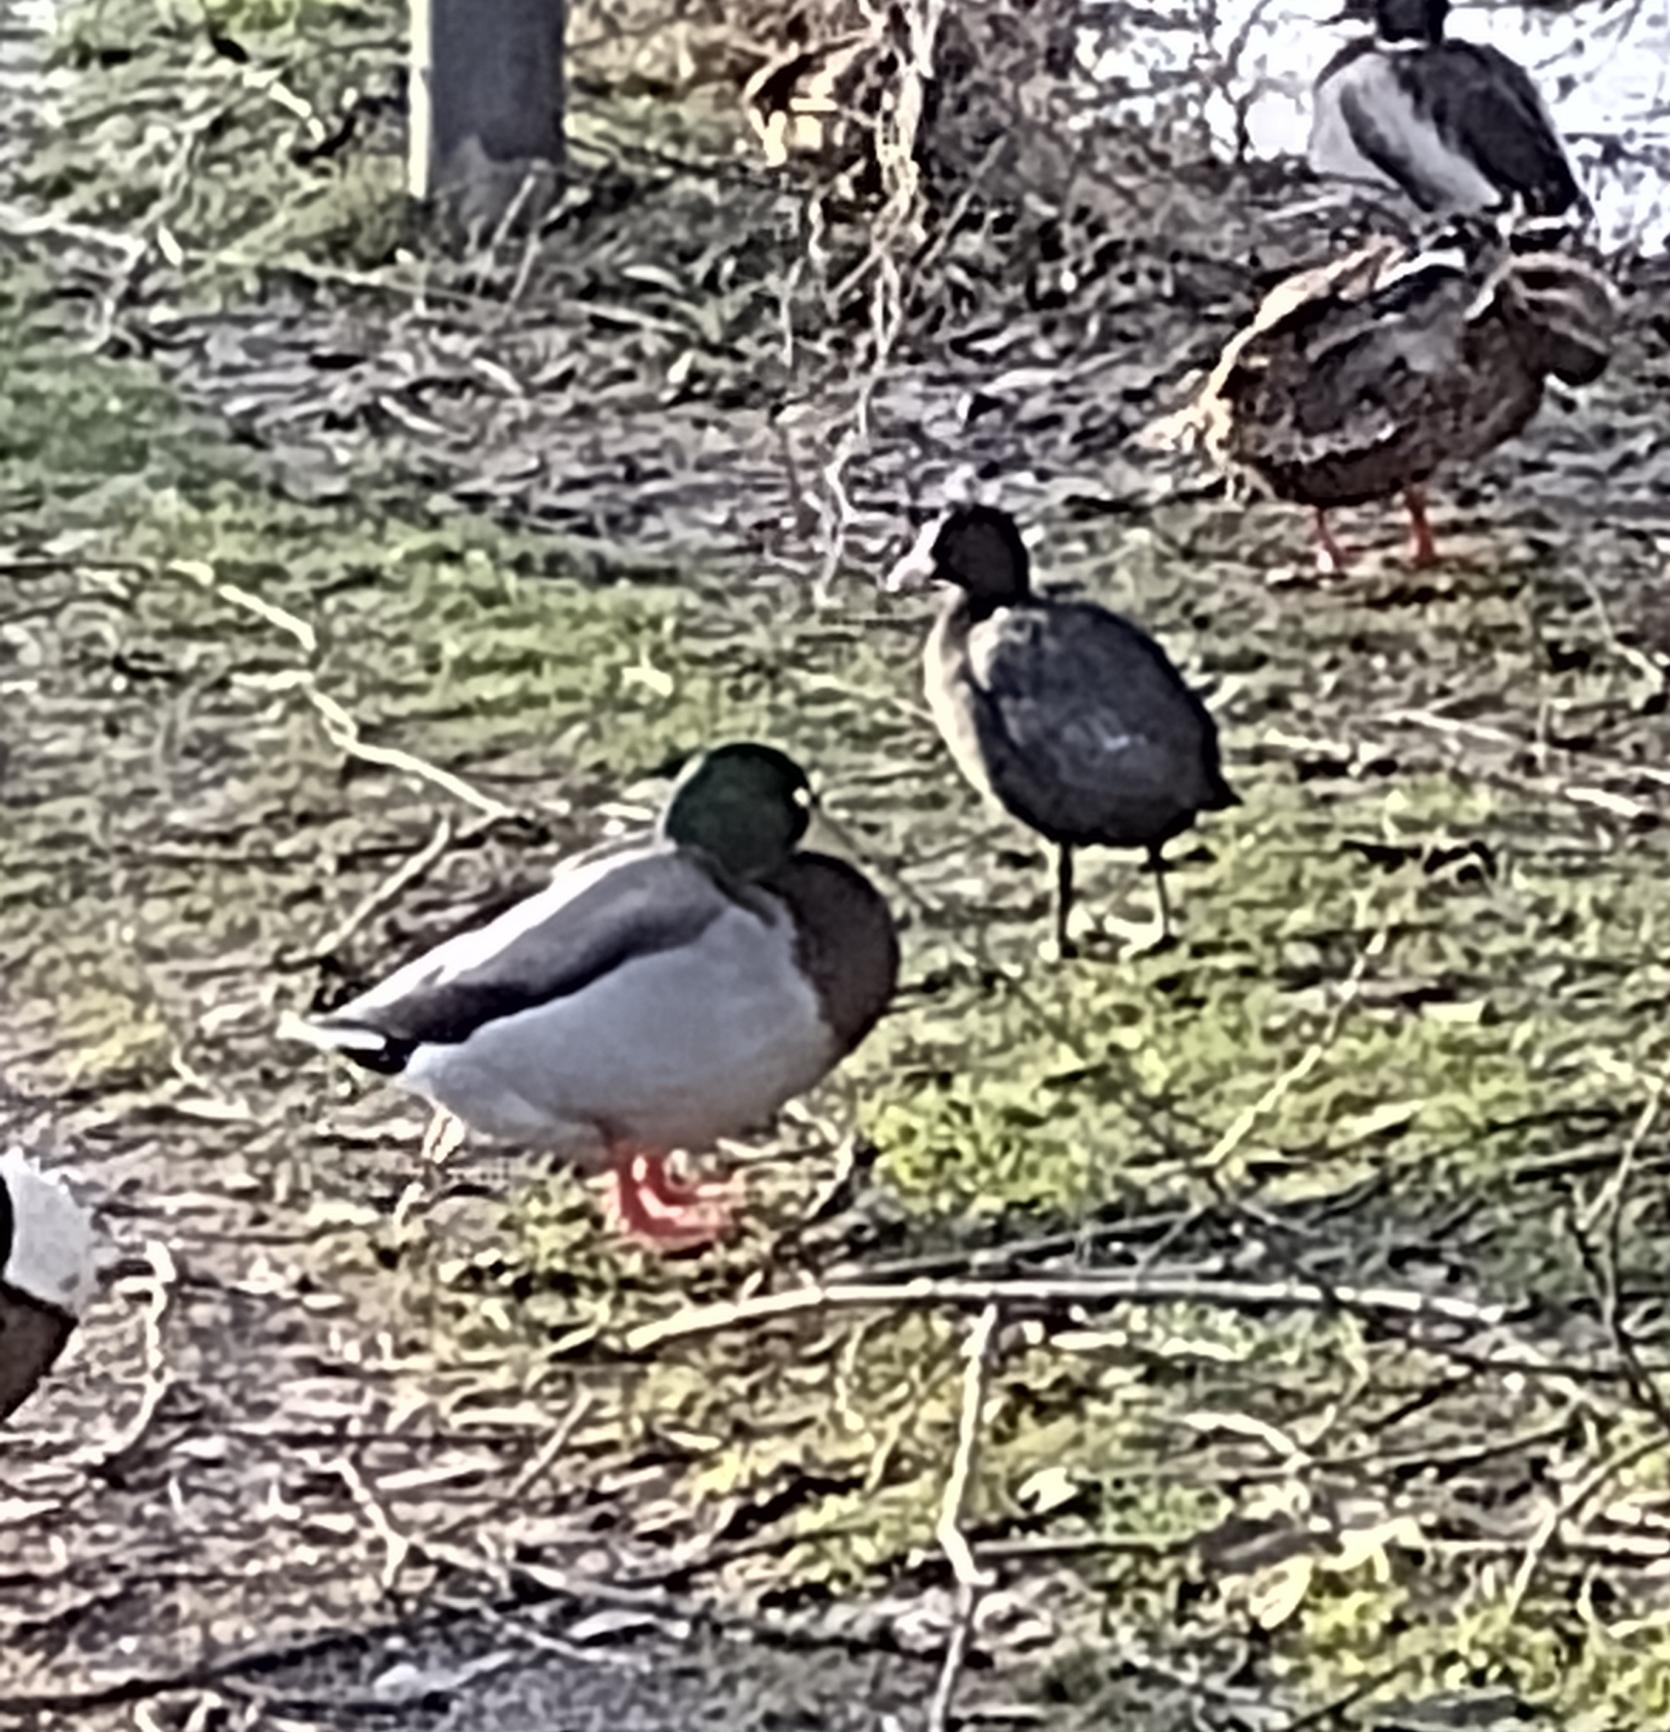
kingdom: Animalia
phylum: Chordata
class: Aves
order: Anseriformes
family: Anatidae
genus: Anas
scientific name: Anas platyrhynchos
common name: Gråand
